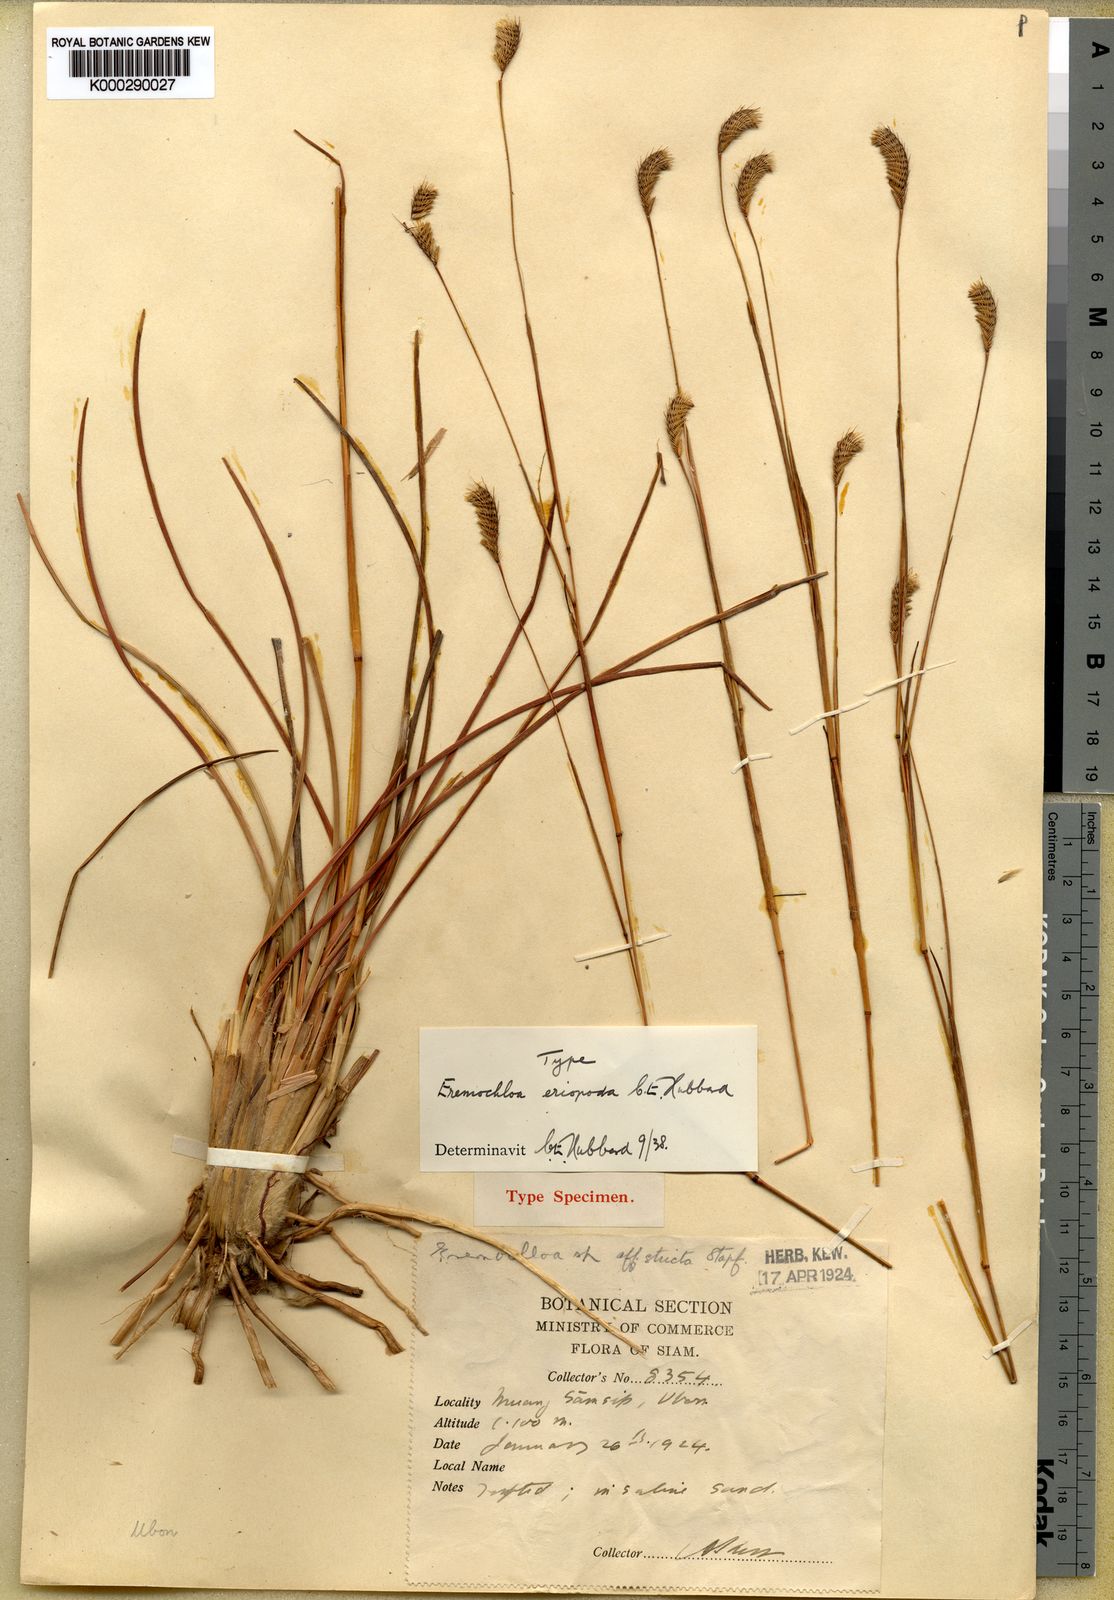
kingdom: Plantae
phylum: Tracheophyta
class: Liliopsida
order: Poales
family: Poaceae
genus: Eremochloa
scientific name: Eremochloa eriopoda
